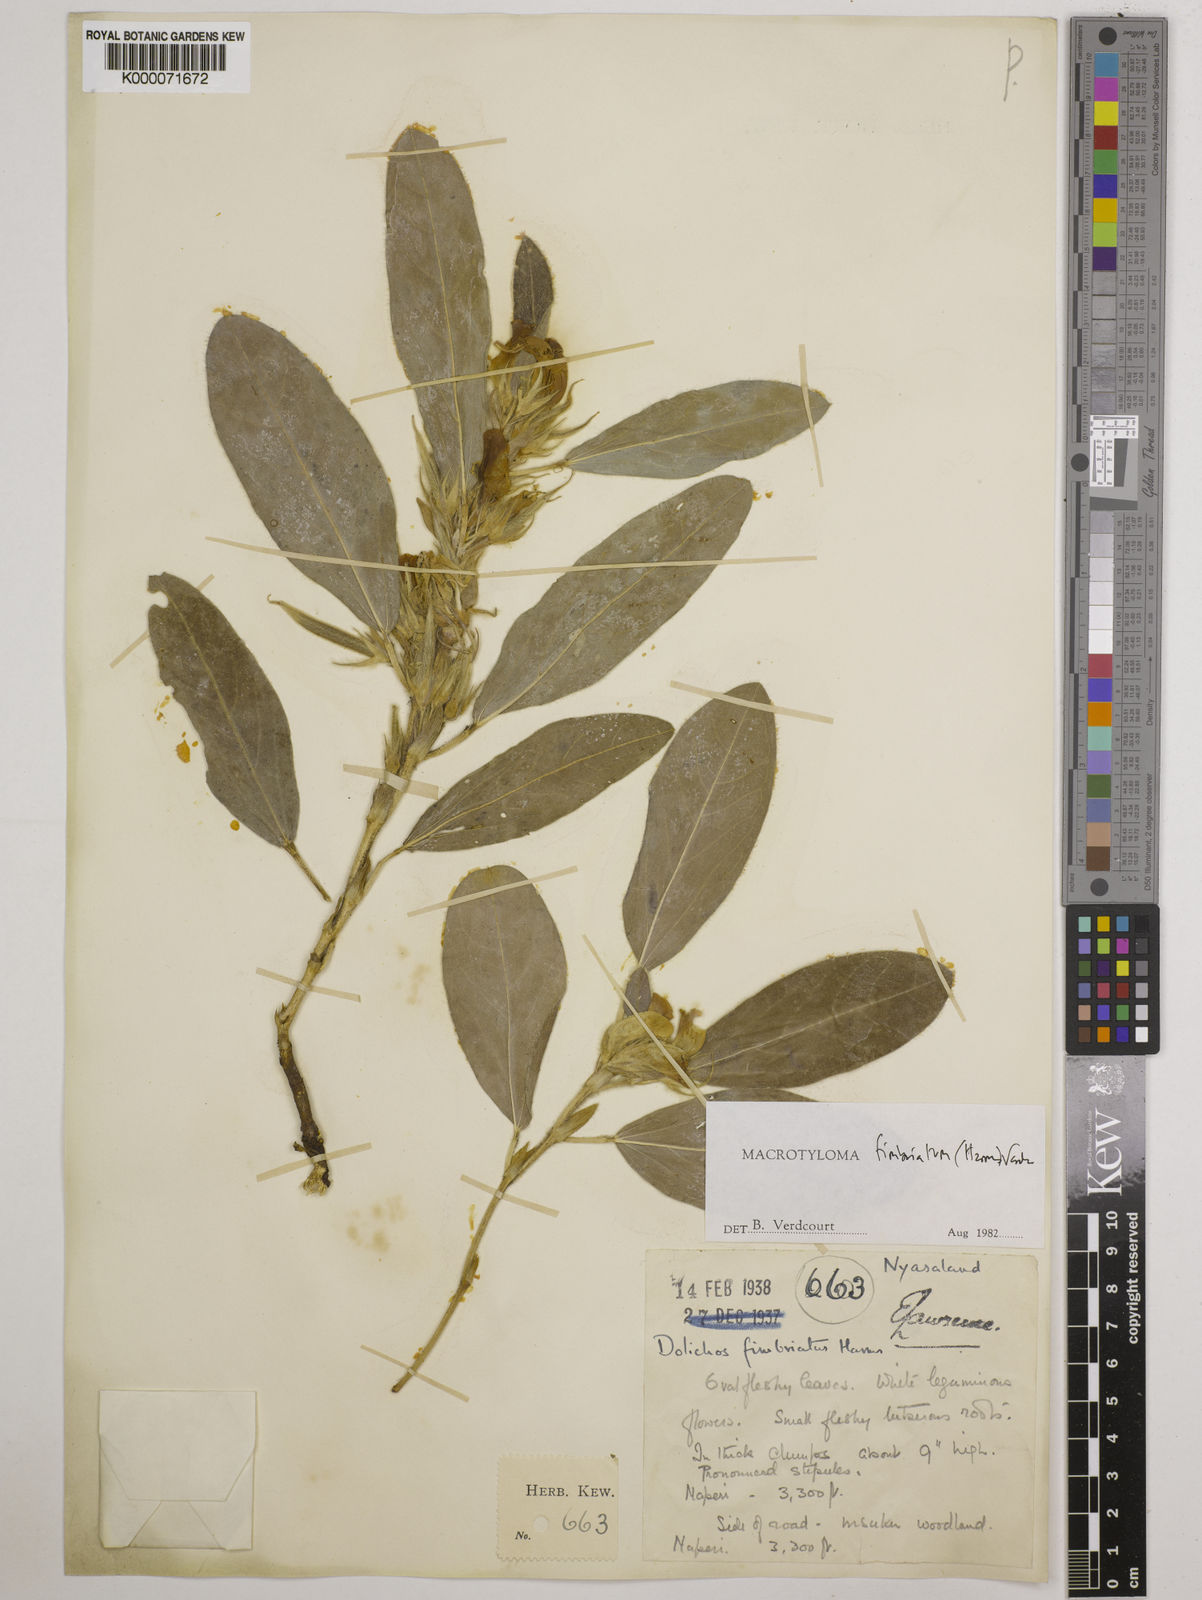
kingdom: Plantae
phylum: Tracheophyta
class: Magnoliopsida
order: Fabales
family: Fabaceae
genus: Macrotyloma
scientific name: Macrotyloma fimbriatum
